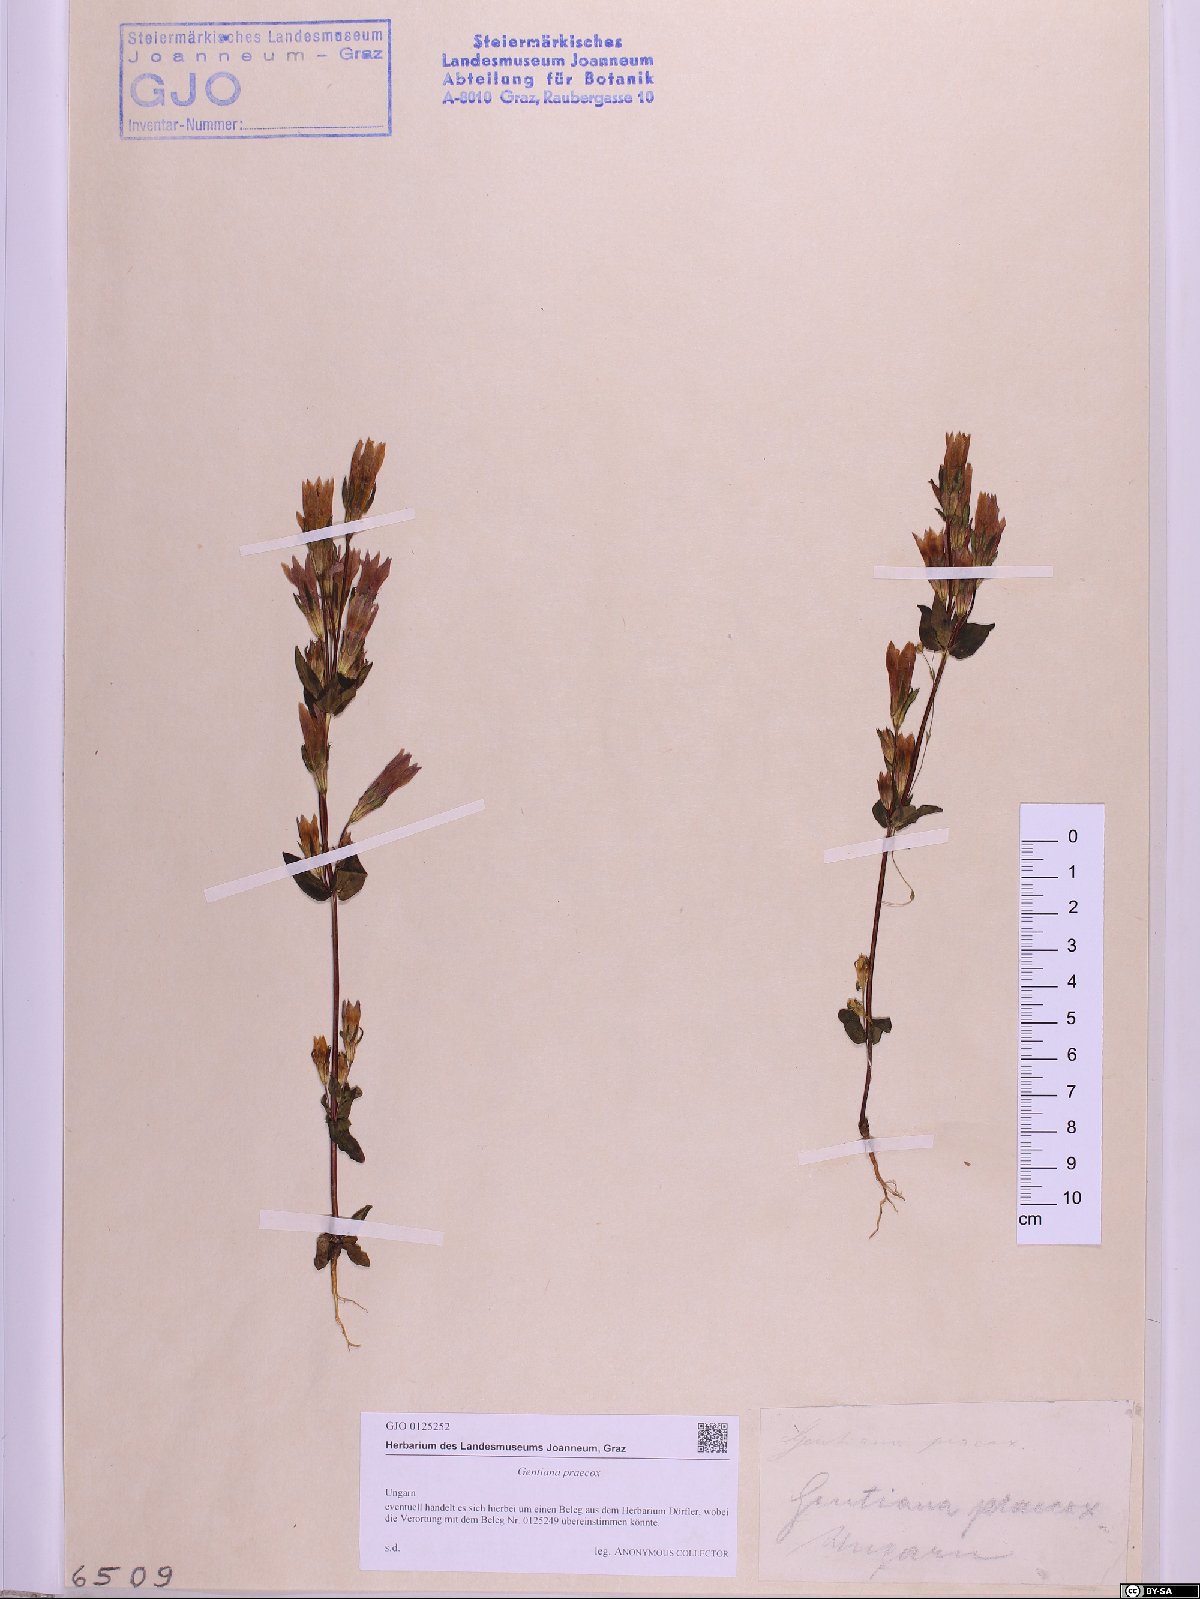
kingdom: Plantae
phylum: Tracheophyta
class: Magnoliopsida
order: Gentianales
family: Gentianaceae
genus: Gentianella
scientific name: Gentianella praecox
